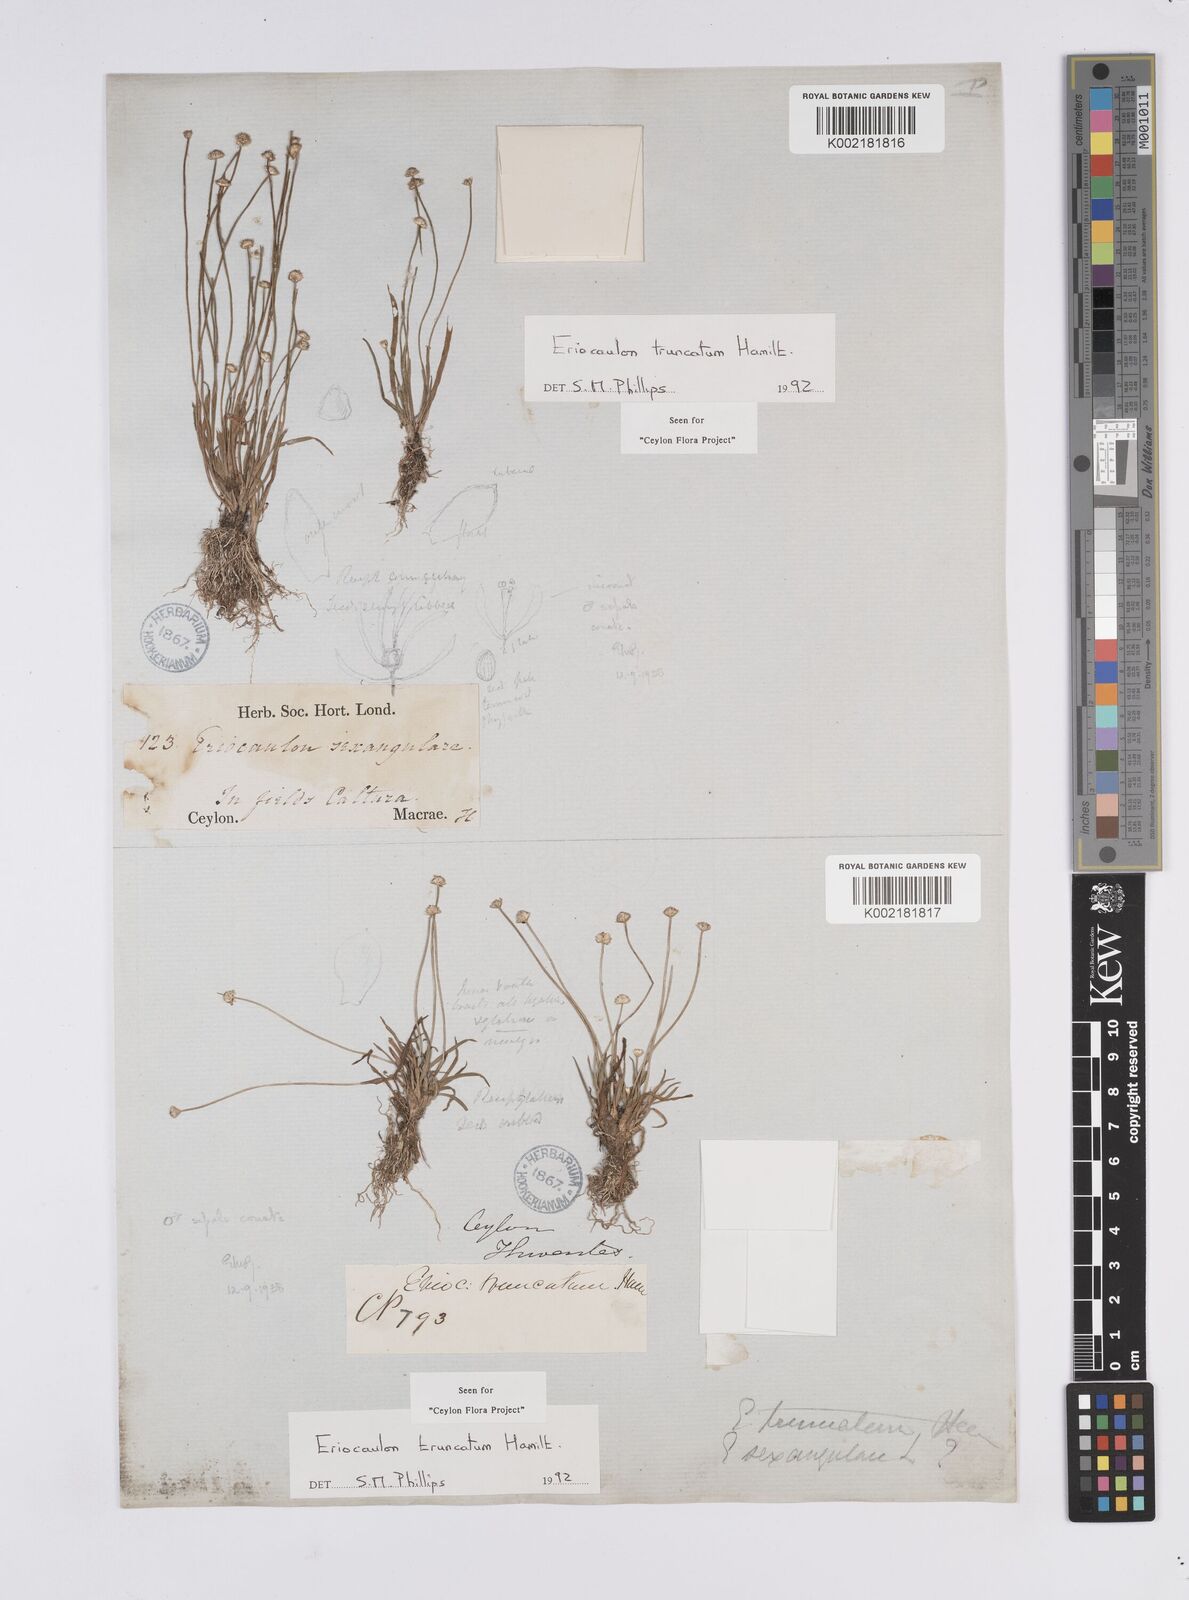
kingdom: Plantae
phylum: Tracheophyta
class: Liliopsida
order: Poales
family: Eriocaulaceae
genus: Eriocaulon
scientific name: Eriocaulon truncatum
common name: Short pipe-wort
